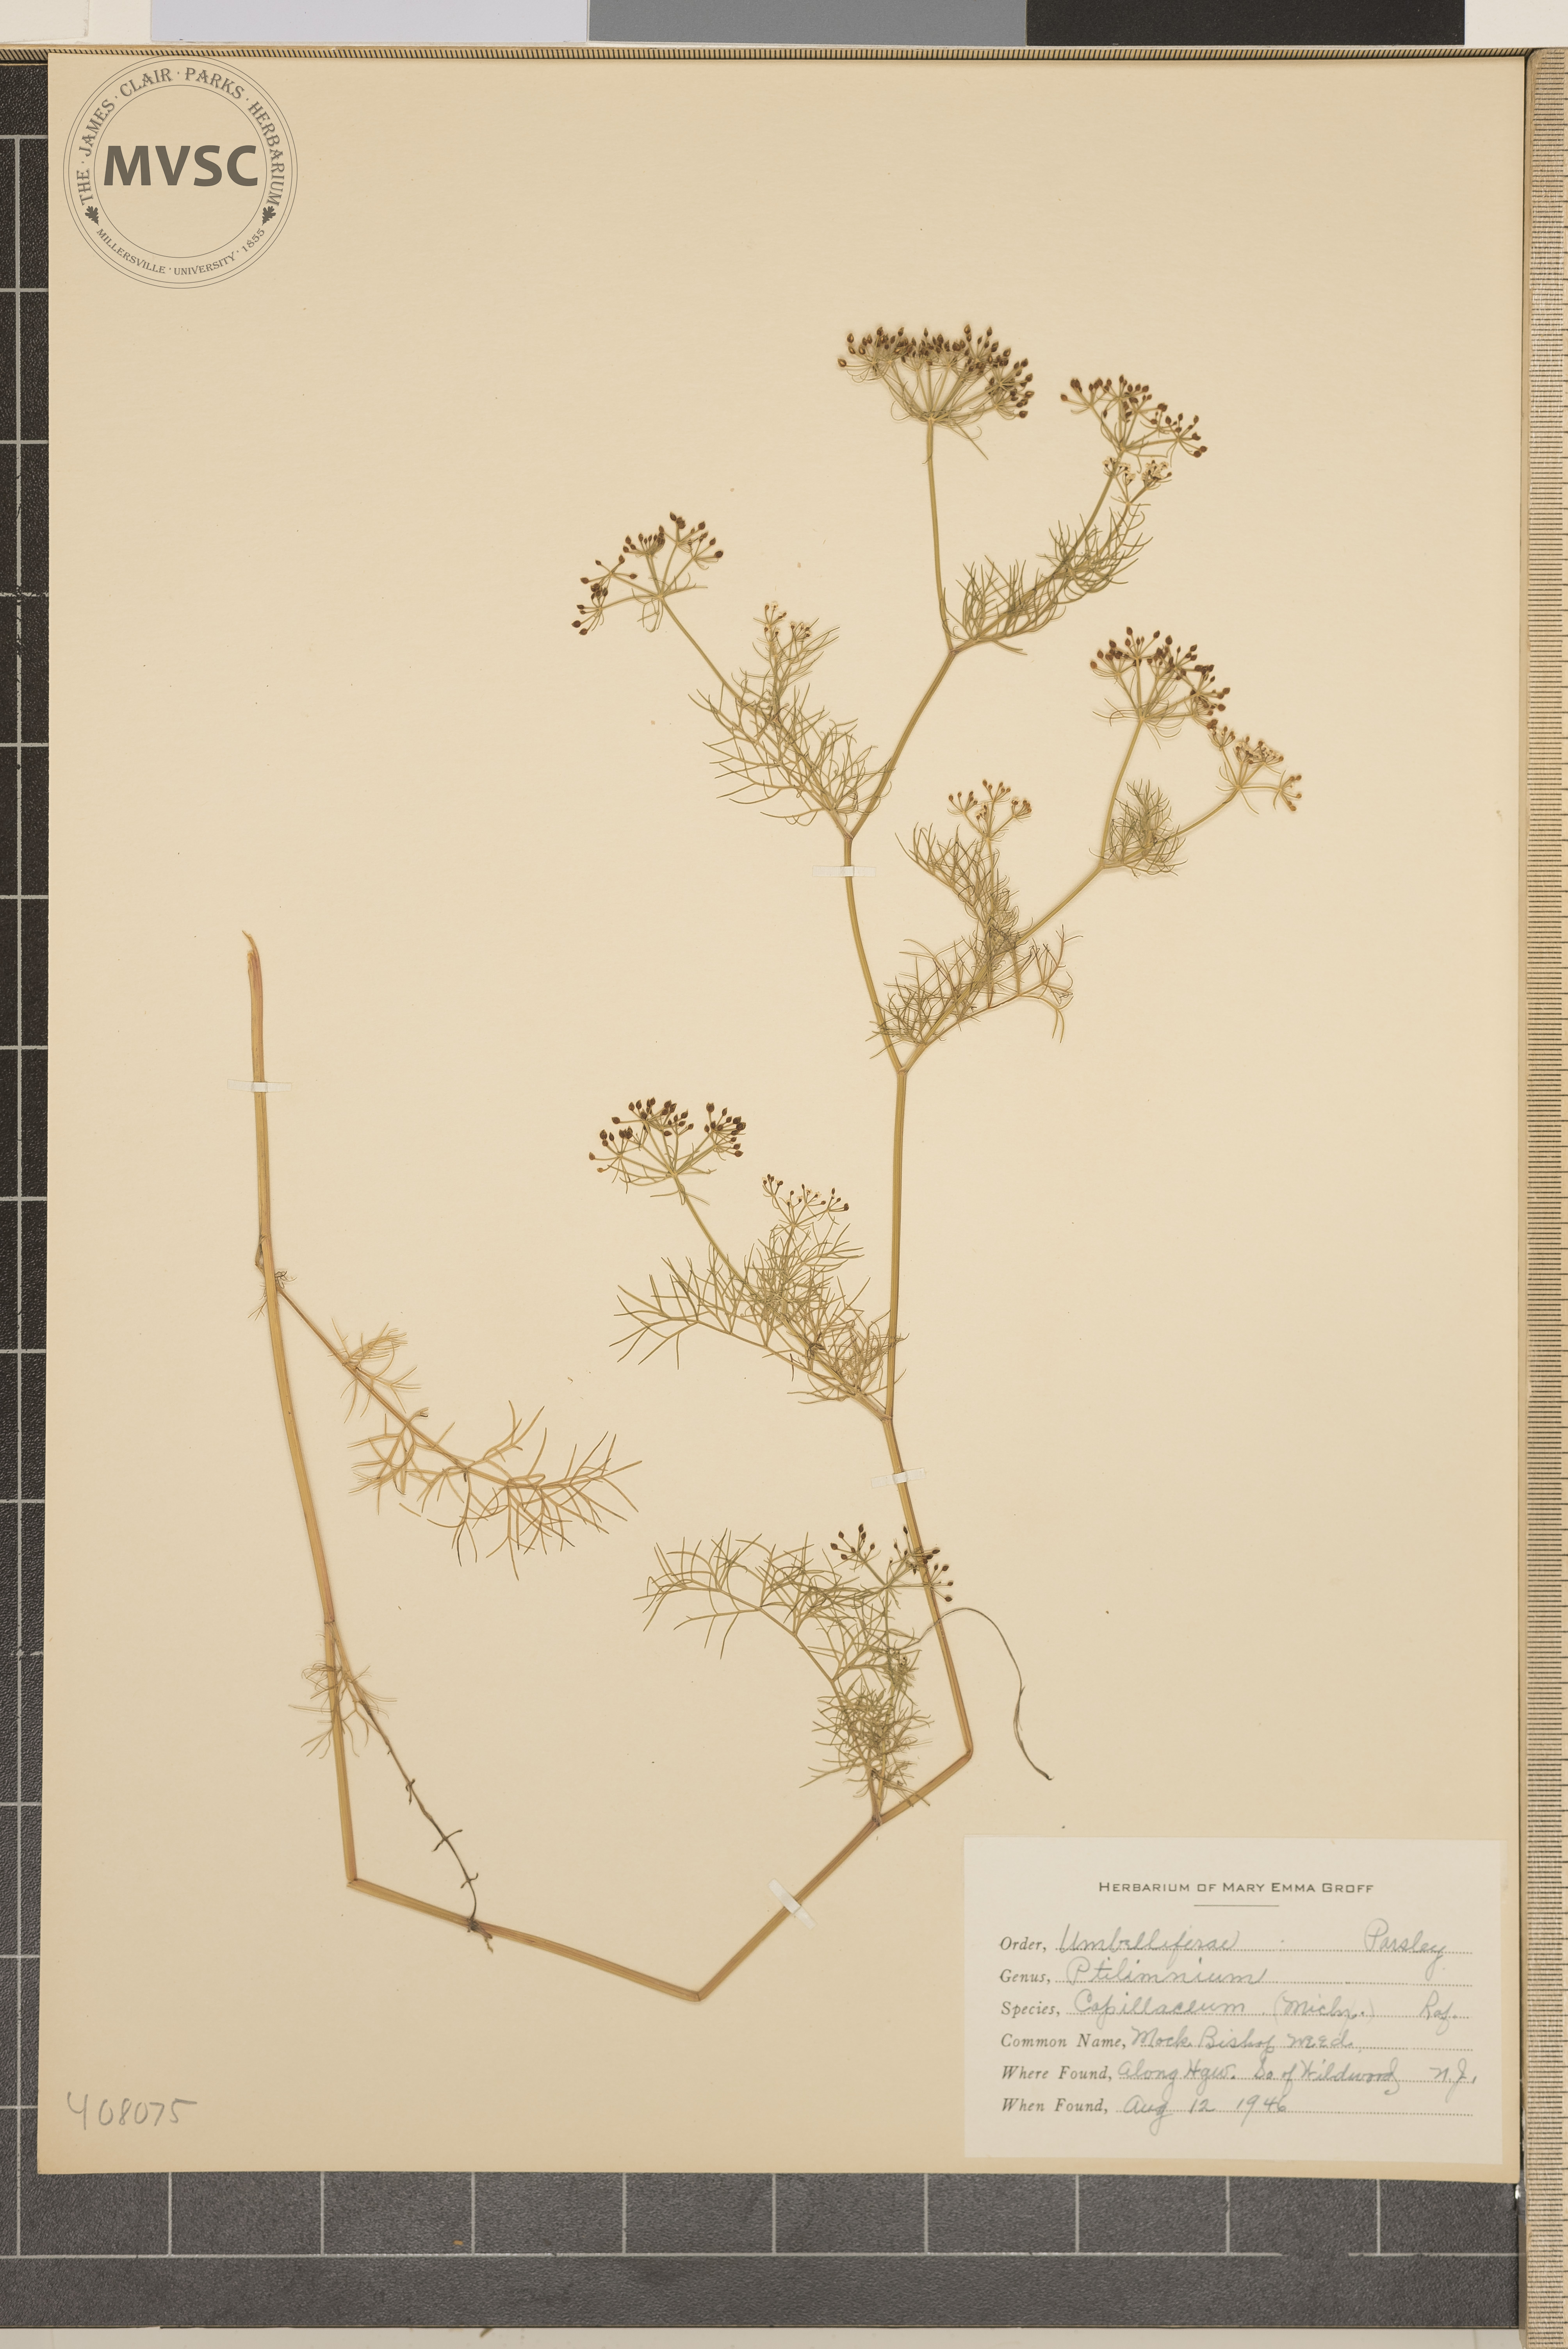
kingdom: Plantae
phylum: Tracheophyta
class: Magnoliopsida
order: Apiales
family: Apiaceae
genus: Ptilimnium
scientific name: Ptilimnium capillaceum
